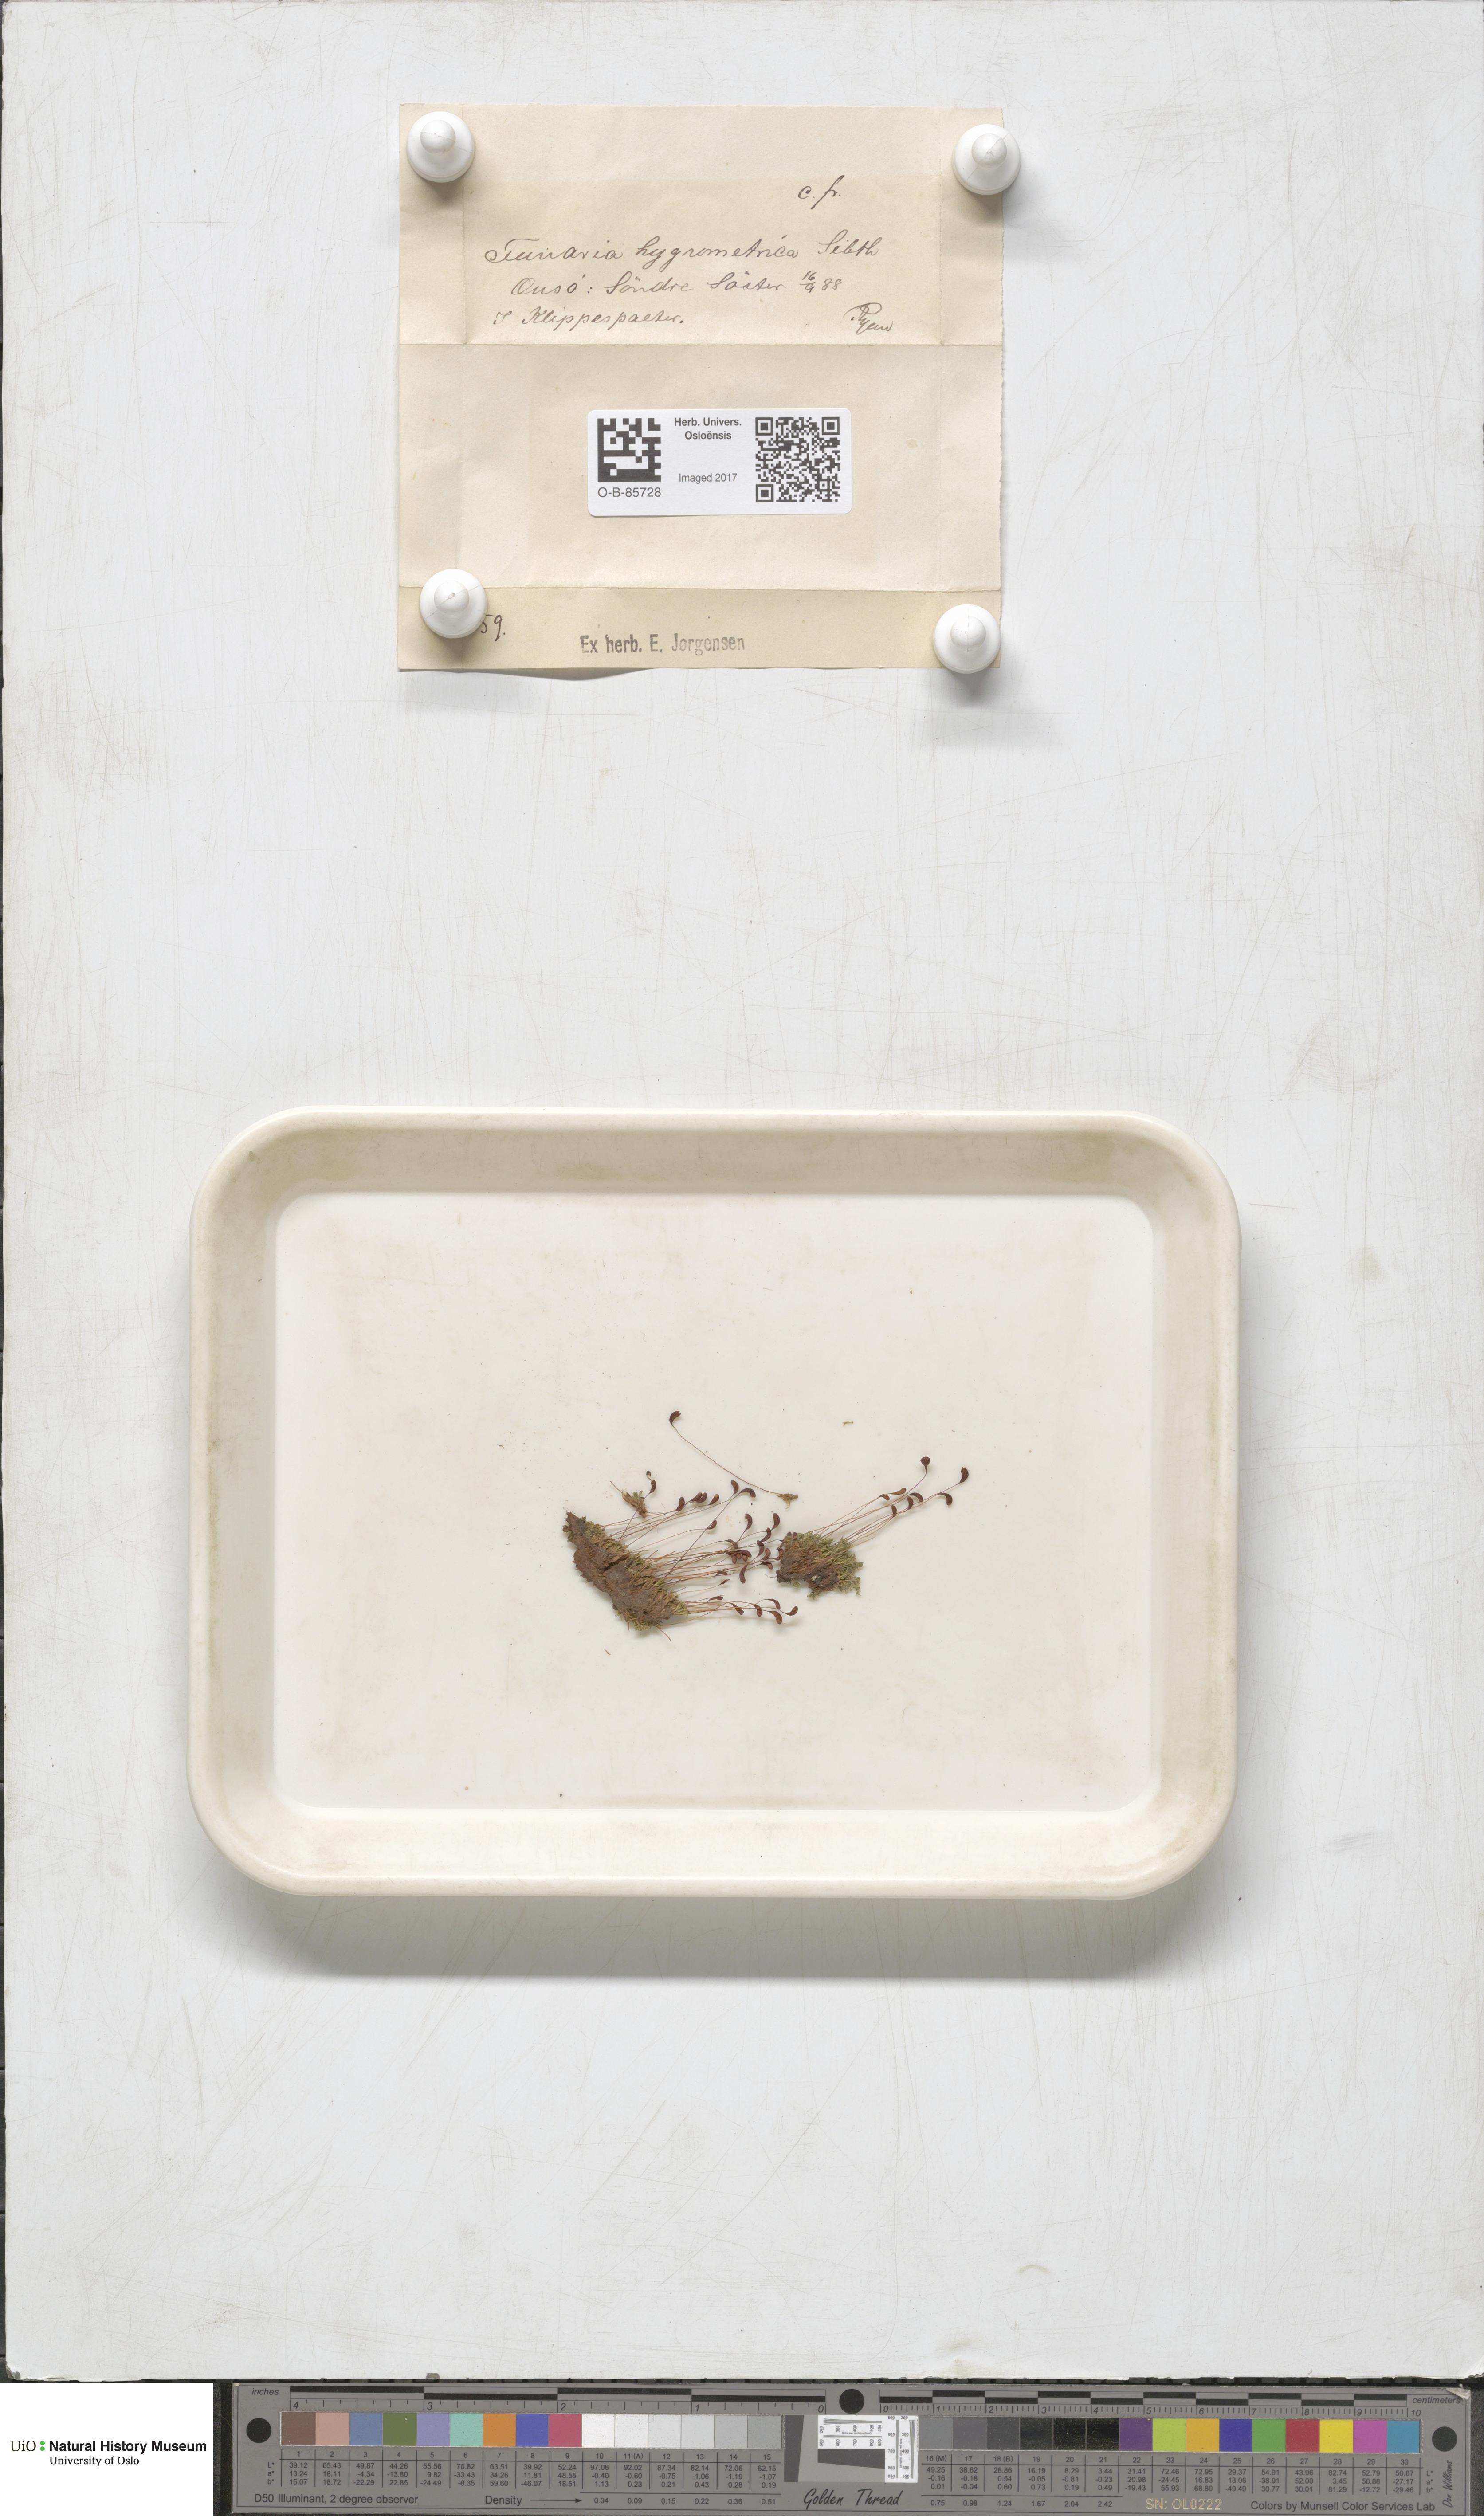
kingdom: Plantae
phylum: Bryophyta
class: Bryopsida
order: Funariales
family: Funariaceae
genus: Funaria
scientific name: Funaria hygrometrica
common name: Common cord moss
